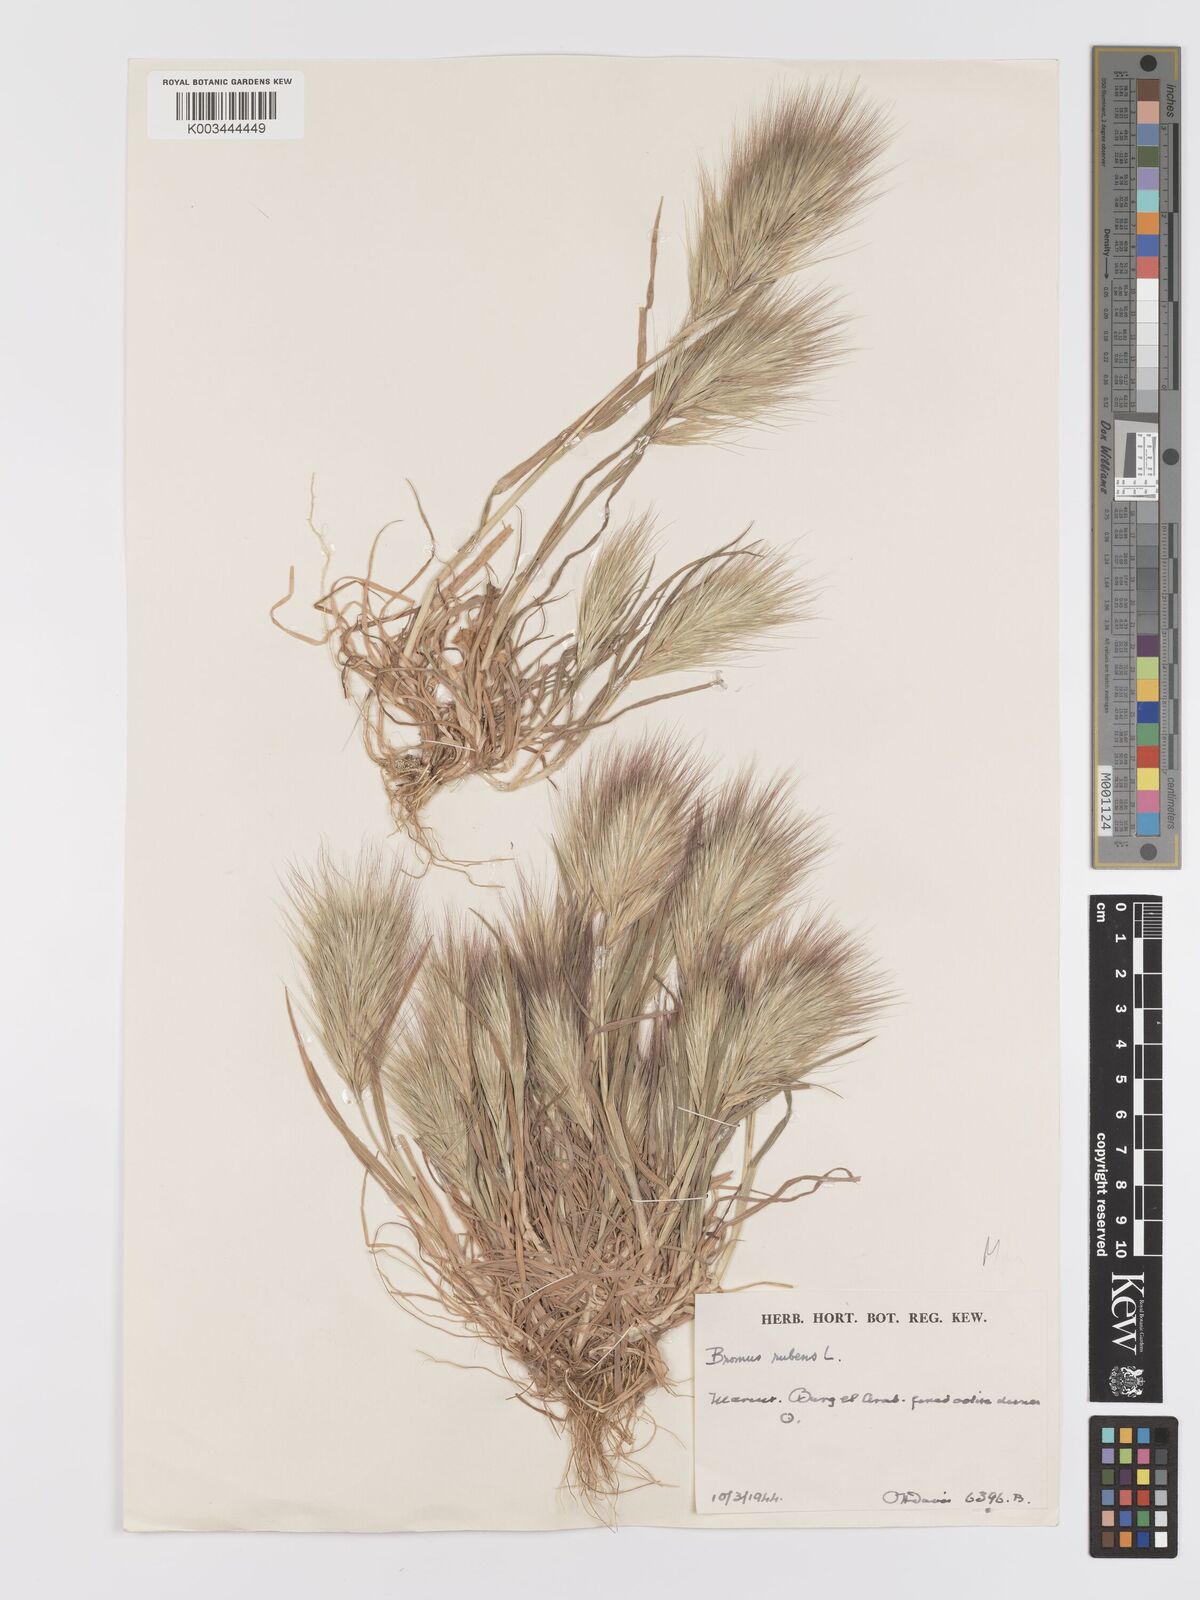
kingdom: Plantae
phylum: Tracheophyta
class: Liliopsida
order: Poales
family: Poaceae
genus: Bromus
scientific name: Bromus rubens
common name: Red brome
